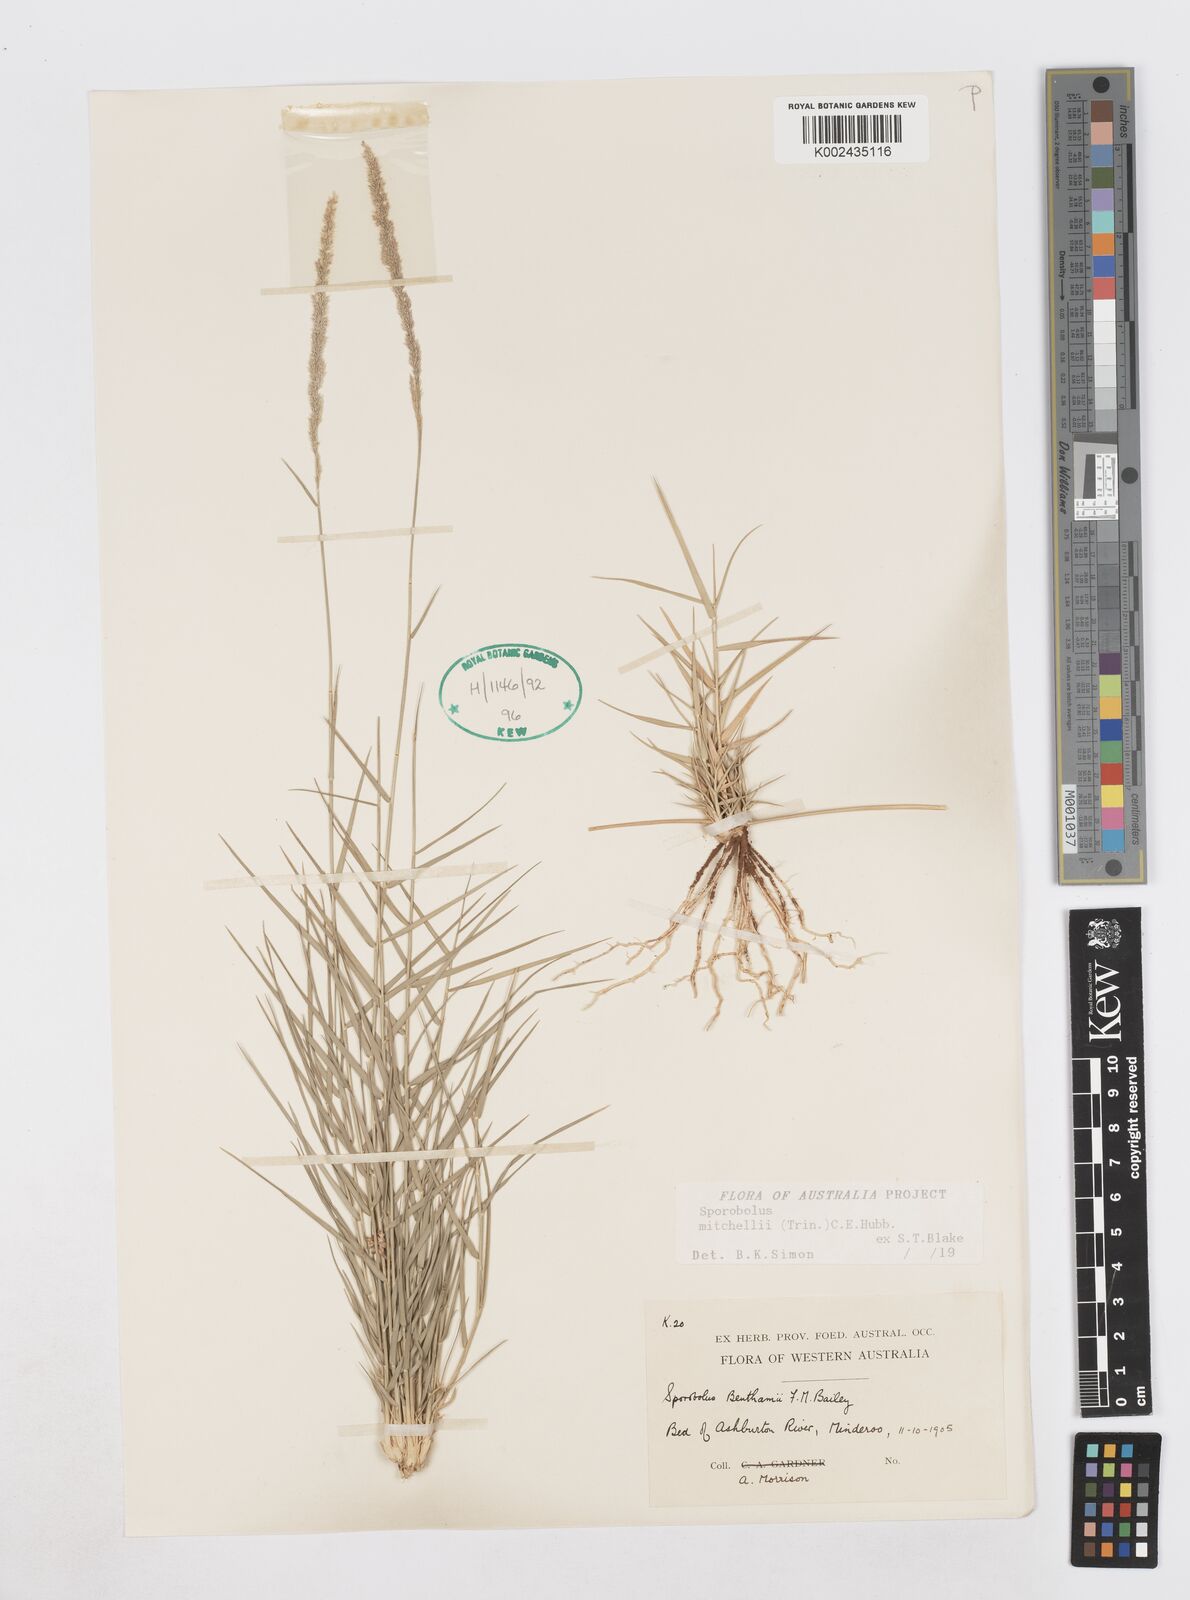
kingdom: Plantae
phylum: Tracheophyta
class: Liliopsida
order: Poales
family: Poaceae
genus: Sporobolus
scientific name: Sporobolus mitchellii
